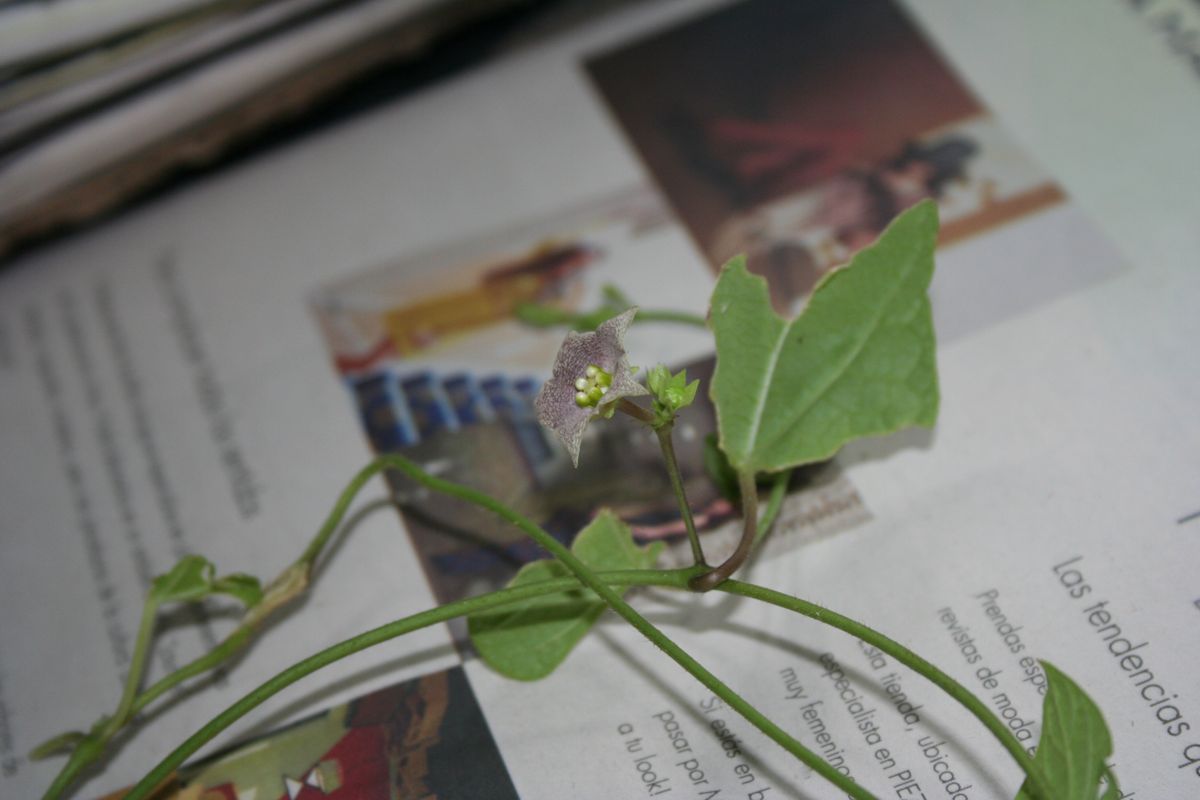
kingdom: Plantae
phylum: Tracheophyta
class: Magnoliopsida
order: Gentianales
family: Apocynaceae
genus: Dictyanthus
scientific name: Dictyanthus asper
